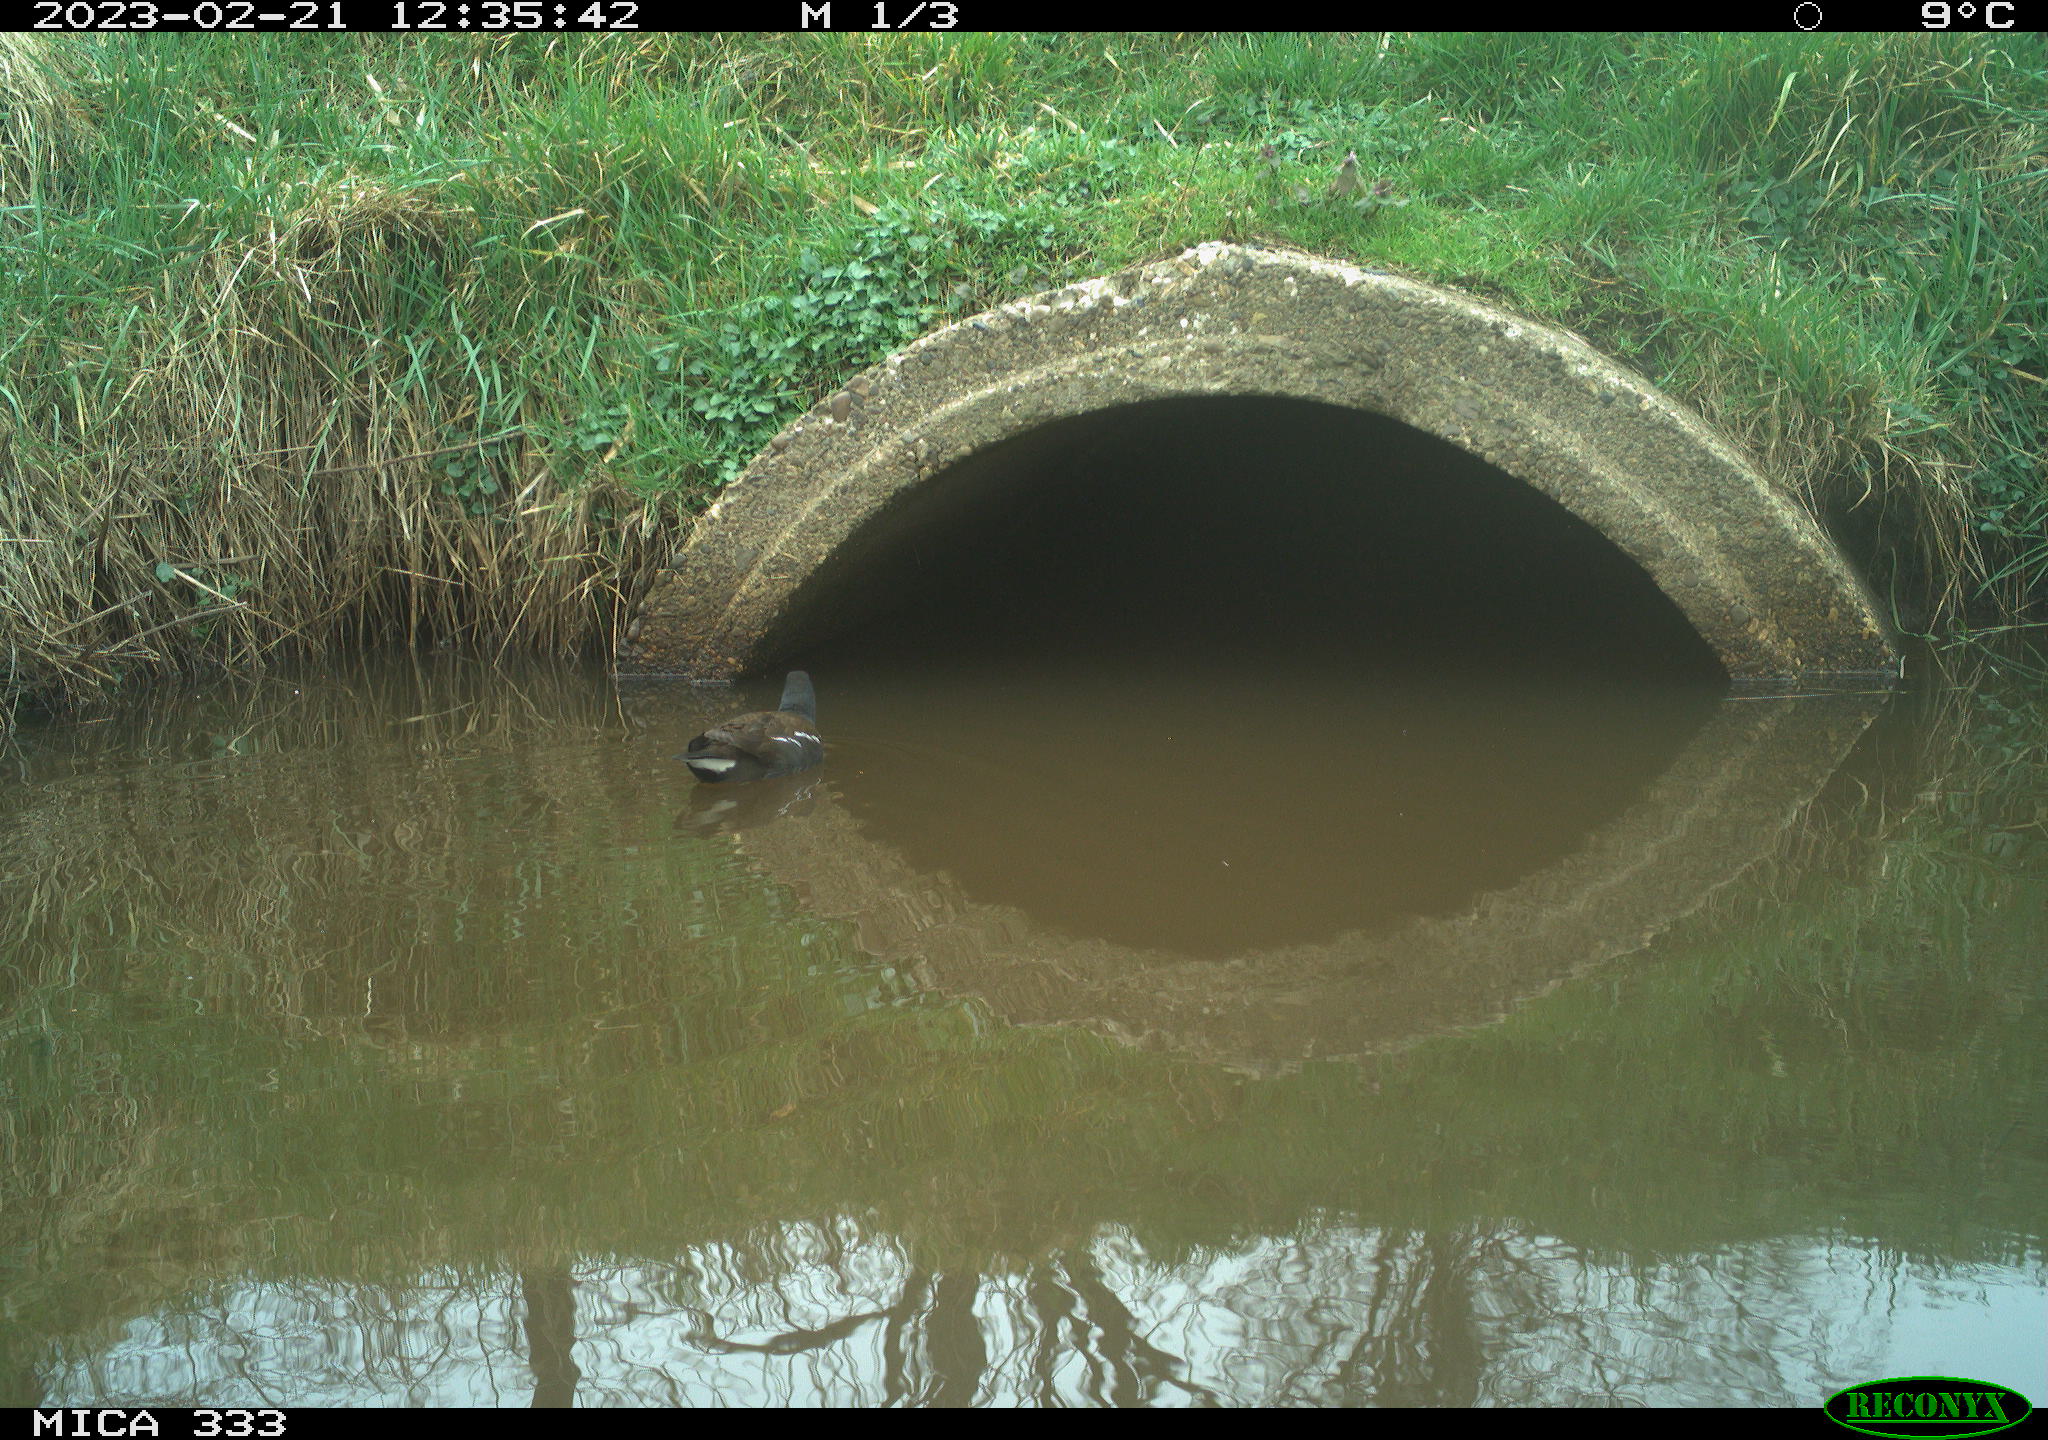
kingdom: Animalia
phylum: Chordata
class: Aves
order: Gruiformes
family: Rallidae
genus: Gallinula
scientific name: Gallinula chloropus
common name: Common moorhen
